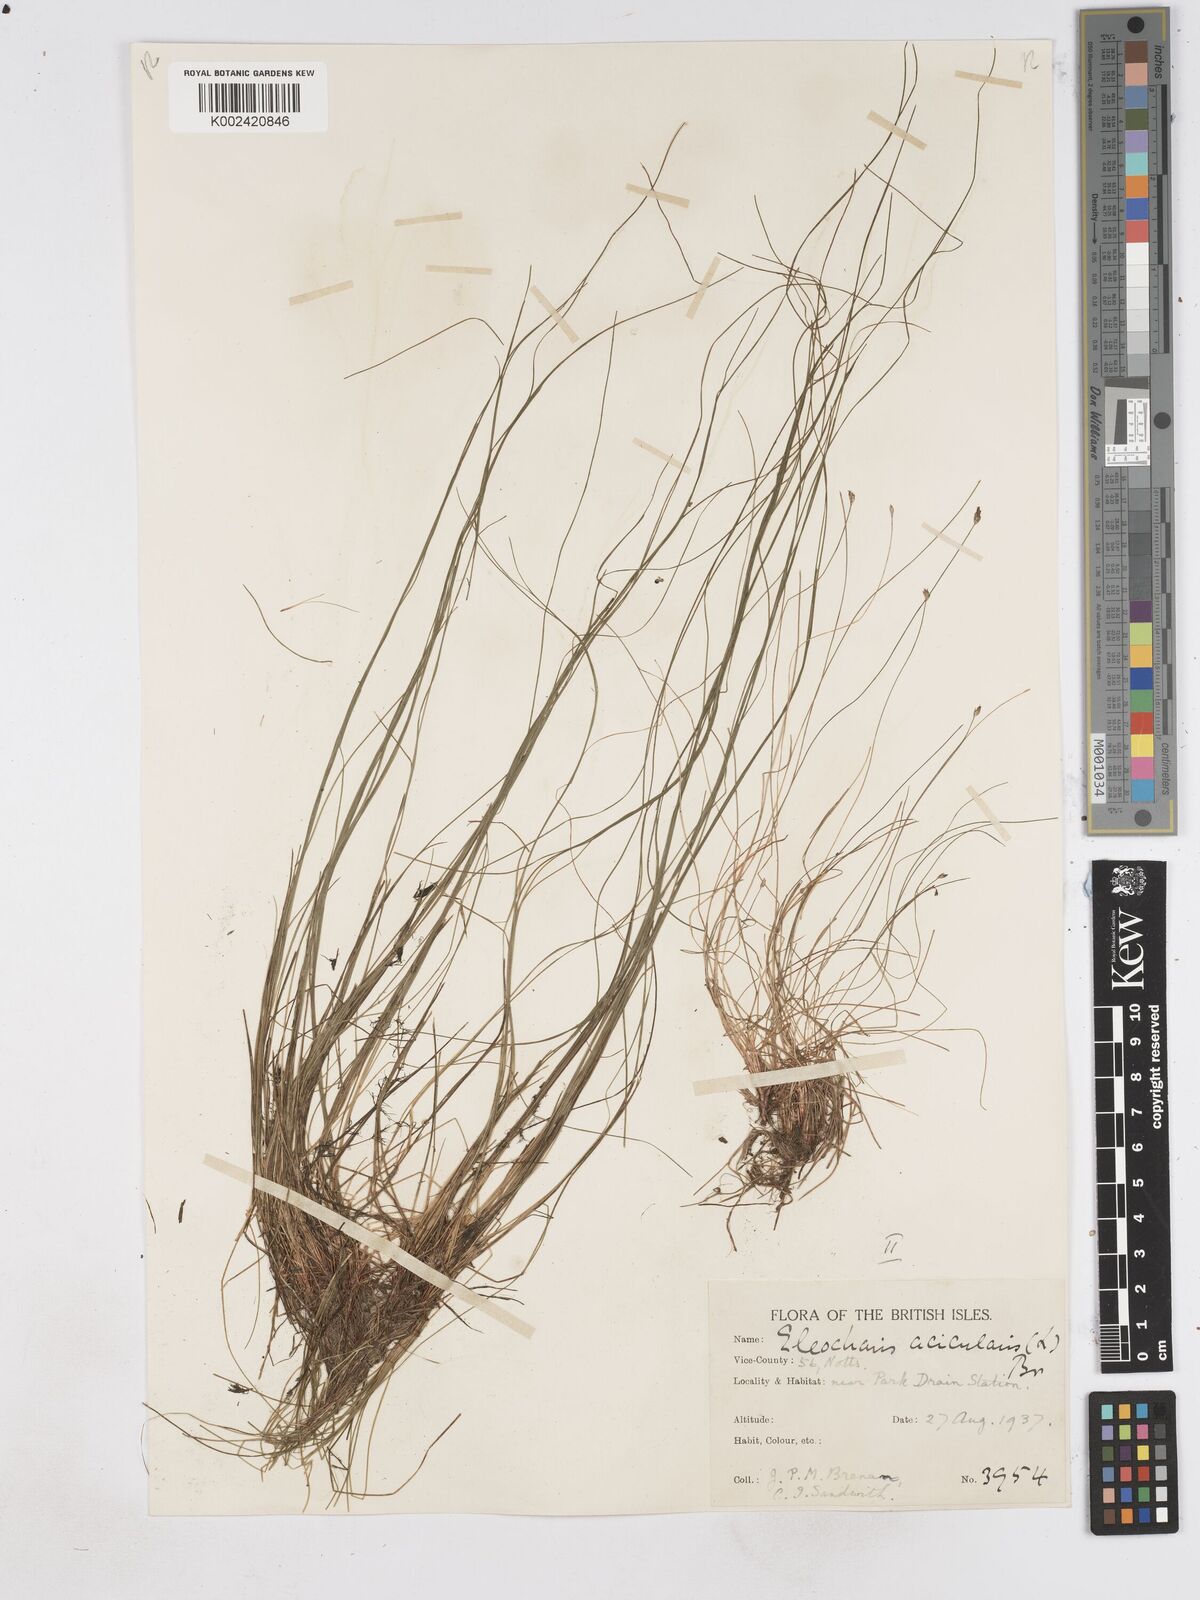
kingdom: Plantae
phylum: Tracheophyta
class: Liliopsida
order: Poales
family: Cyperaceae
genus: Eleocharis
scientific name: Eleocharis acicularis
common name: Needle spike-rush
